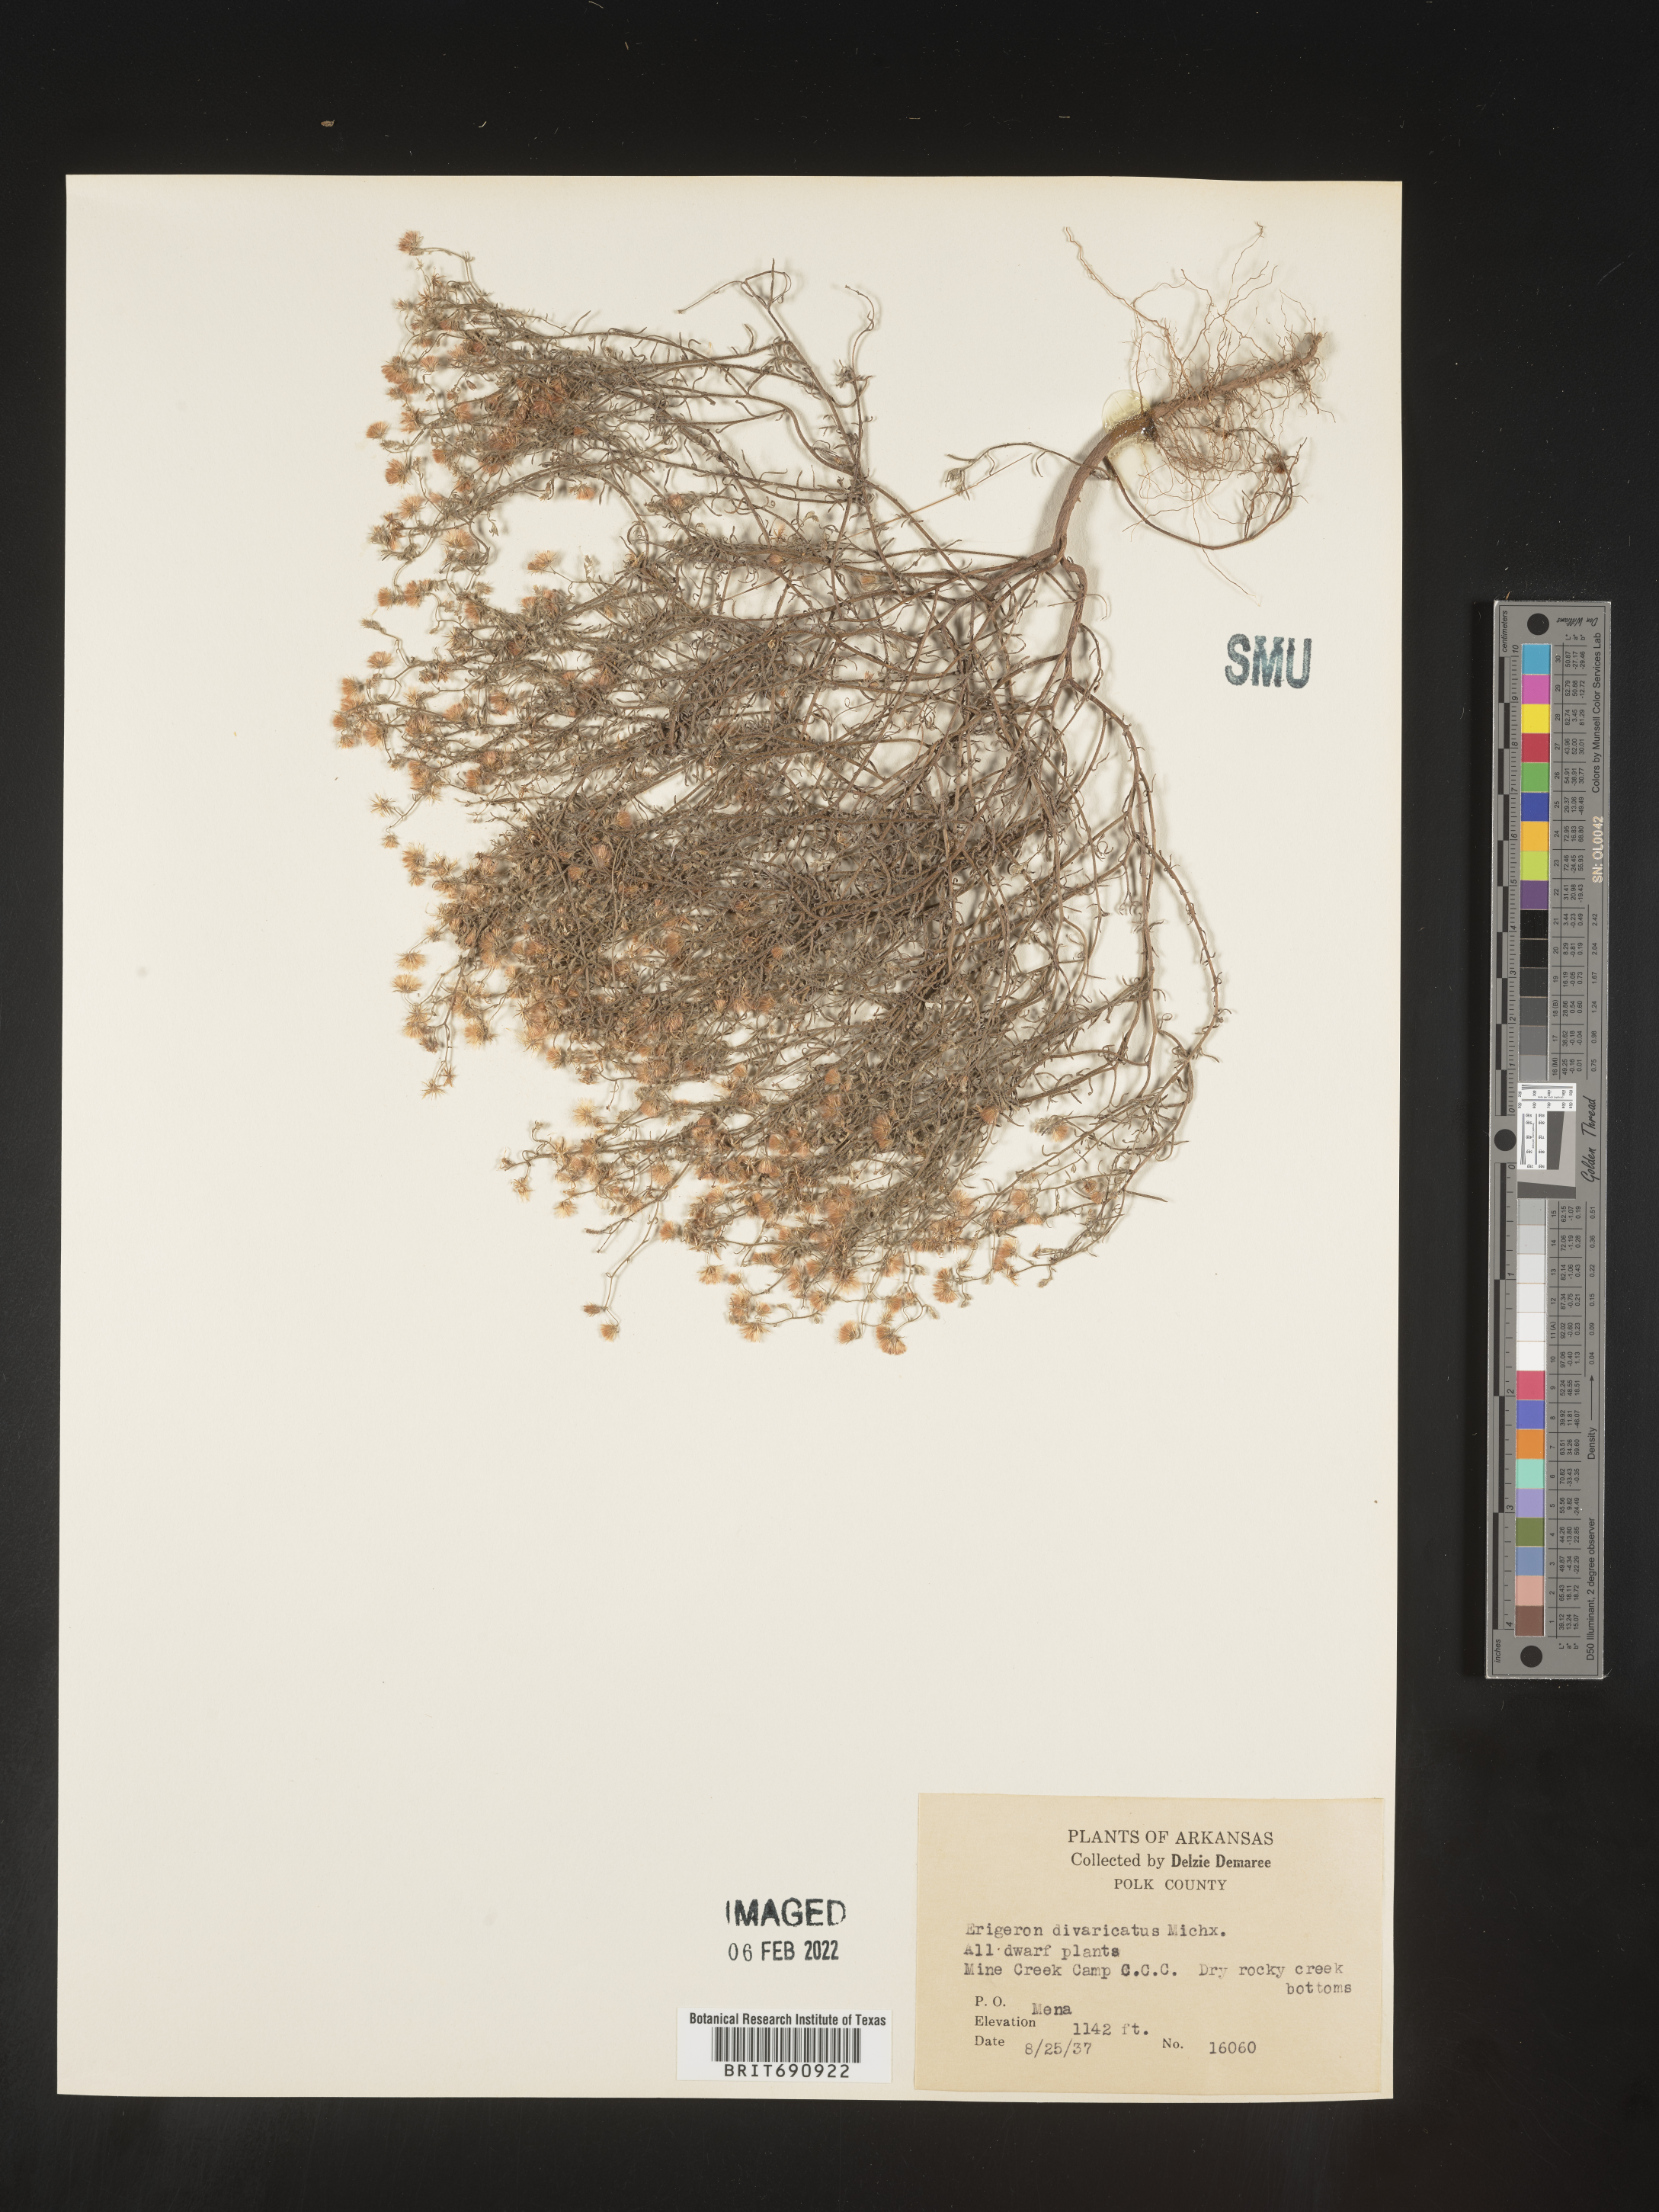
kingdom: Plantae
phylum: Tracheophyta
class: Magnoliopsida
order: Asterales
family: Asteraceae
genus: Erigeron
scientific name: Erigeron divaricatus
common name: Dwarf conyza
